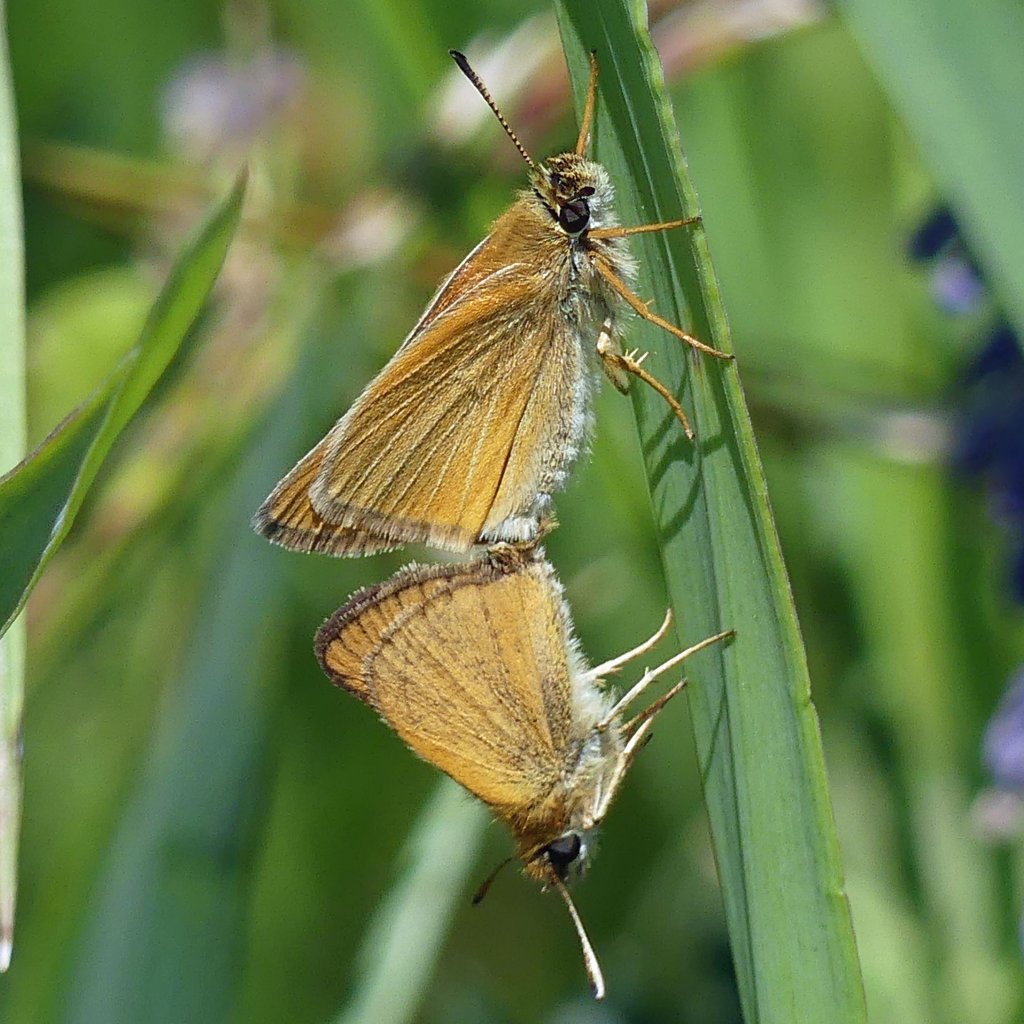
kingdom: Animalia
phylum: Arthropoda
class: Insecta
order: Lepidoptera
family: Hesperiidae
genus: Thymelicus
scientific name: Thymelicus lineola
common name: European Skipper
